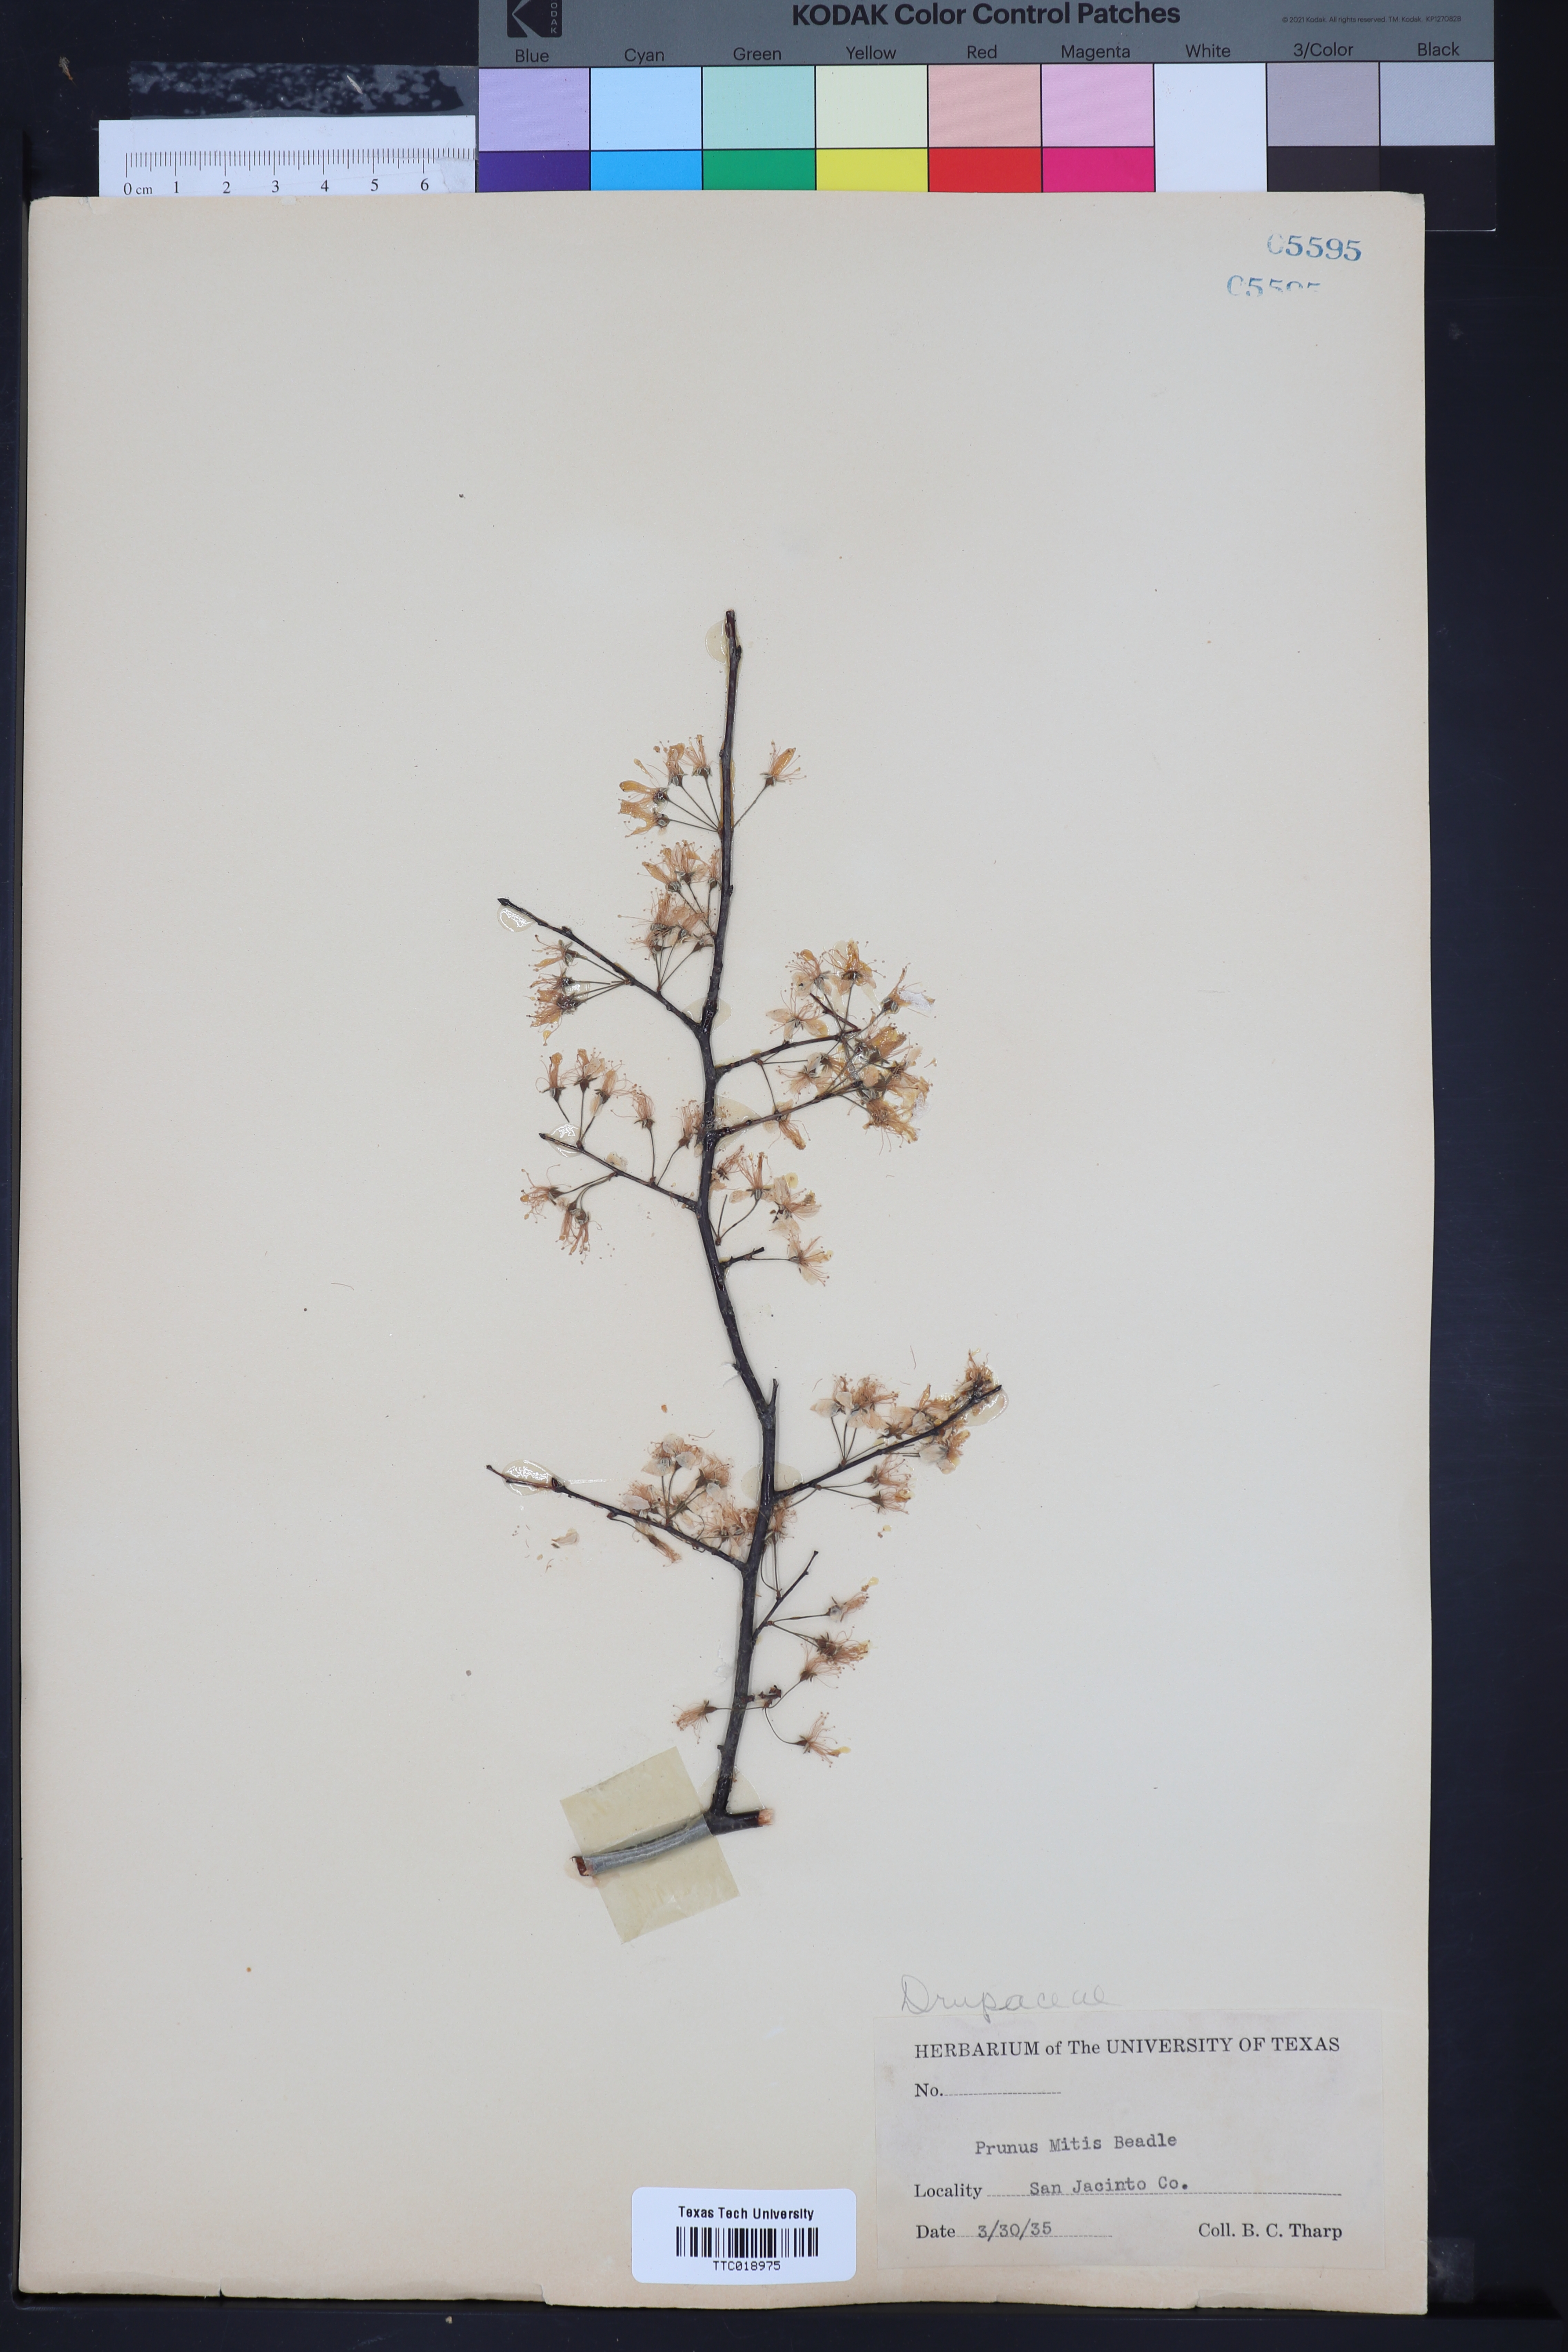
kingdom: Plantae
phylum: Tracheophyta
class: Magnoliopsida
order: Rosales
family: Rosaceae
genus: Prunus
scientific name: Prunus umbellata
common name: Allegheny plum
